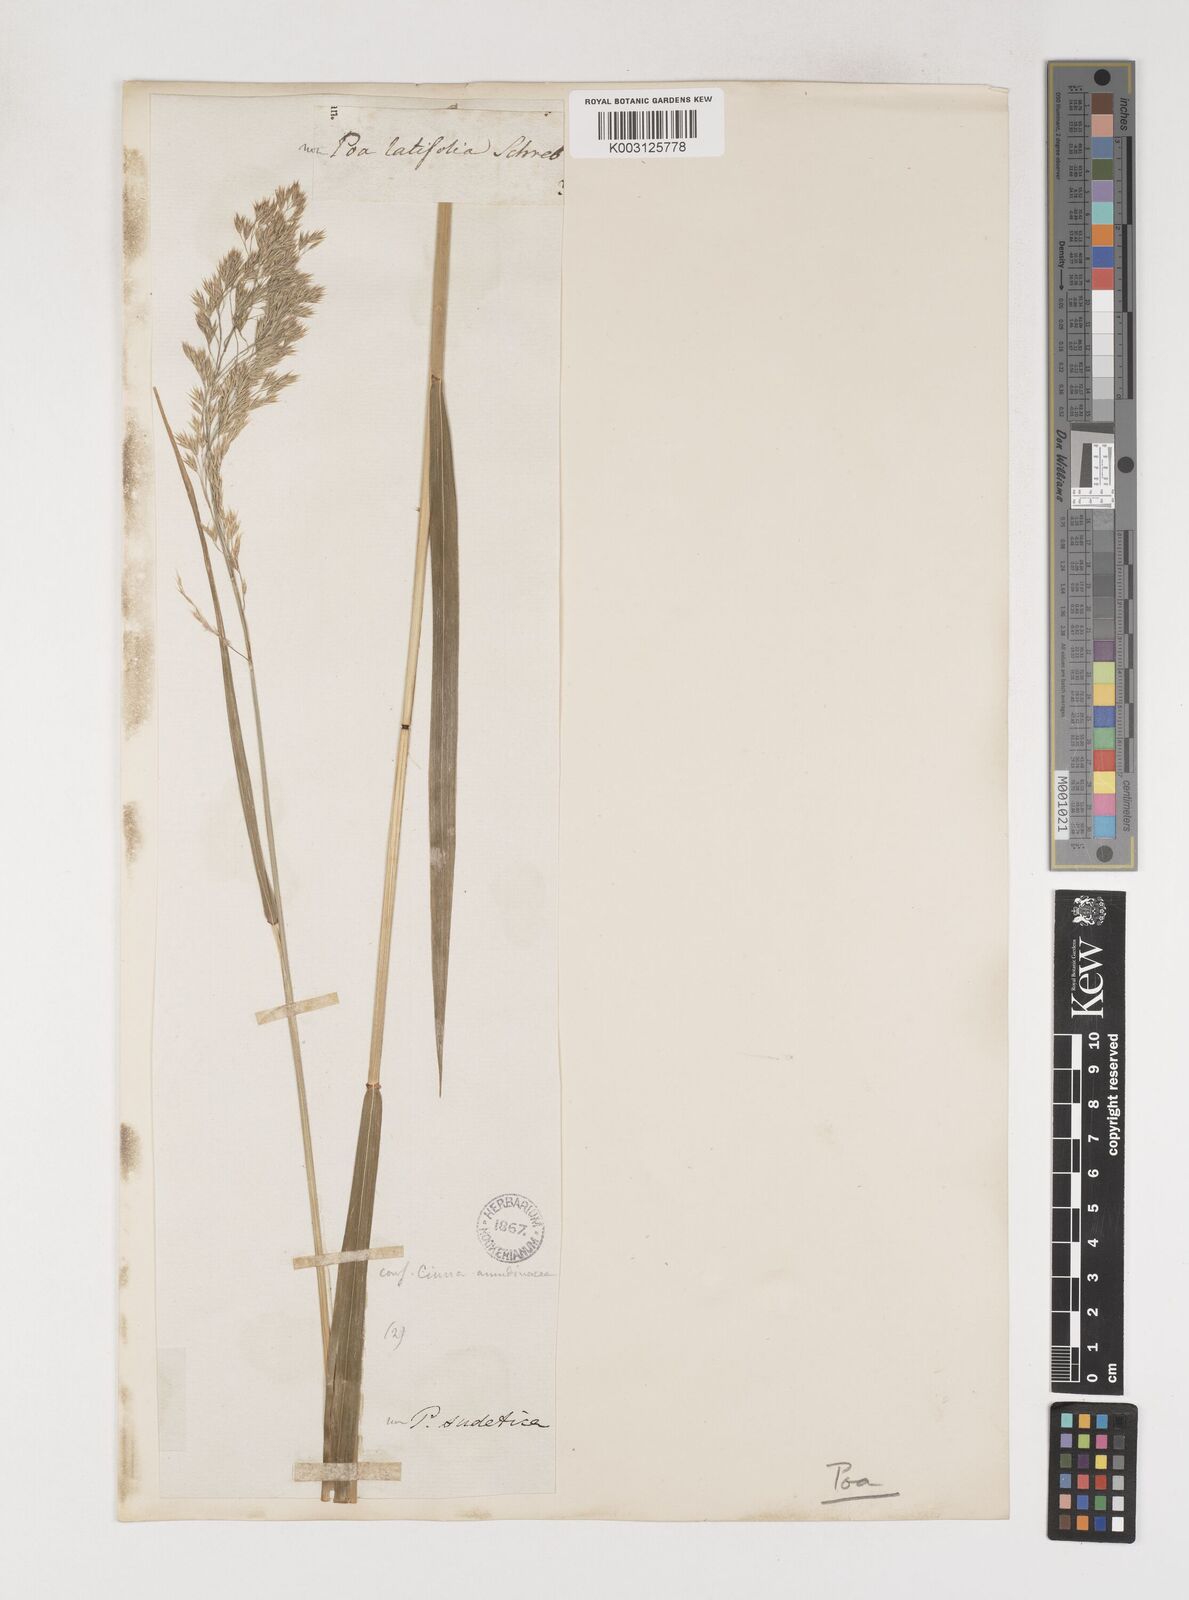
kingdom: Plantae
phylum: Tracheophyta
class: Liliopsida
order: Poales
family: Poaceae
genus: Poa
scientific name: Poa chaixii
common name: Broad-leaved meadow-grass
